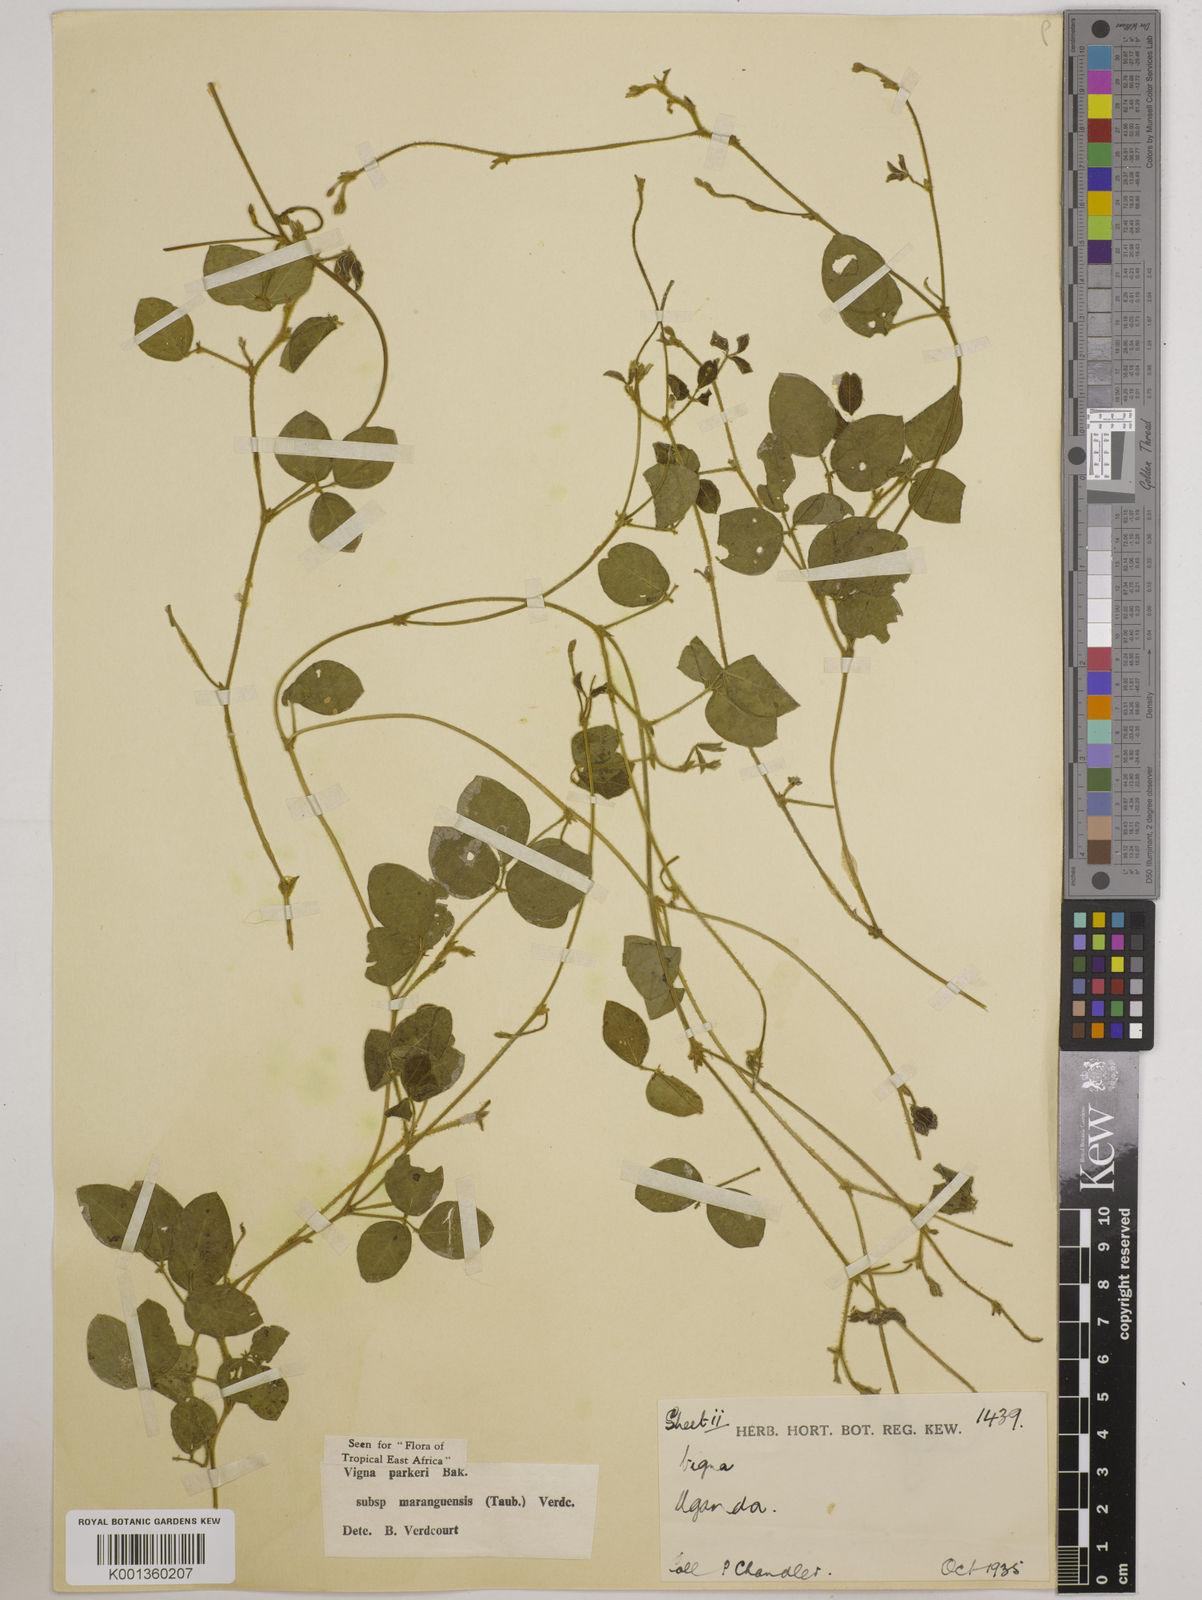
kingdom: Plantae
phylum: Tracheophyta
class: Magnoliopsida
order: Fabales
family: Fabaceae
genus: Vigna
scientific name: Vigna hosei
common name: Sarawak-bean
